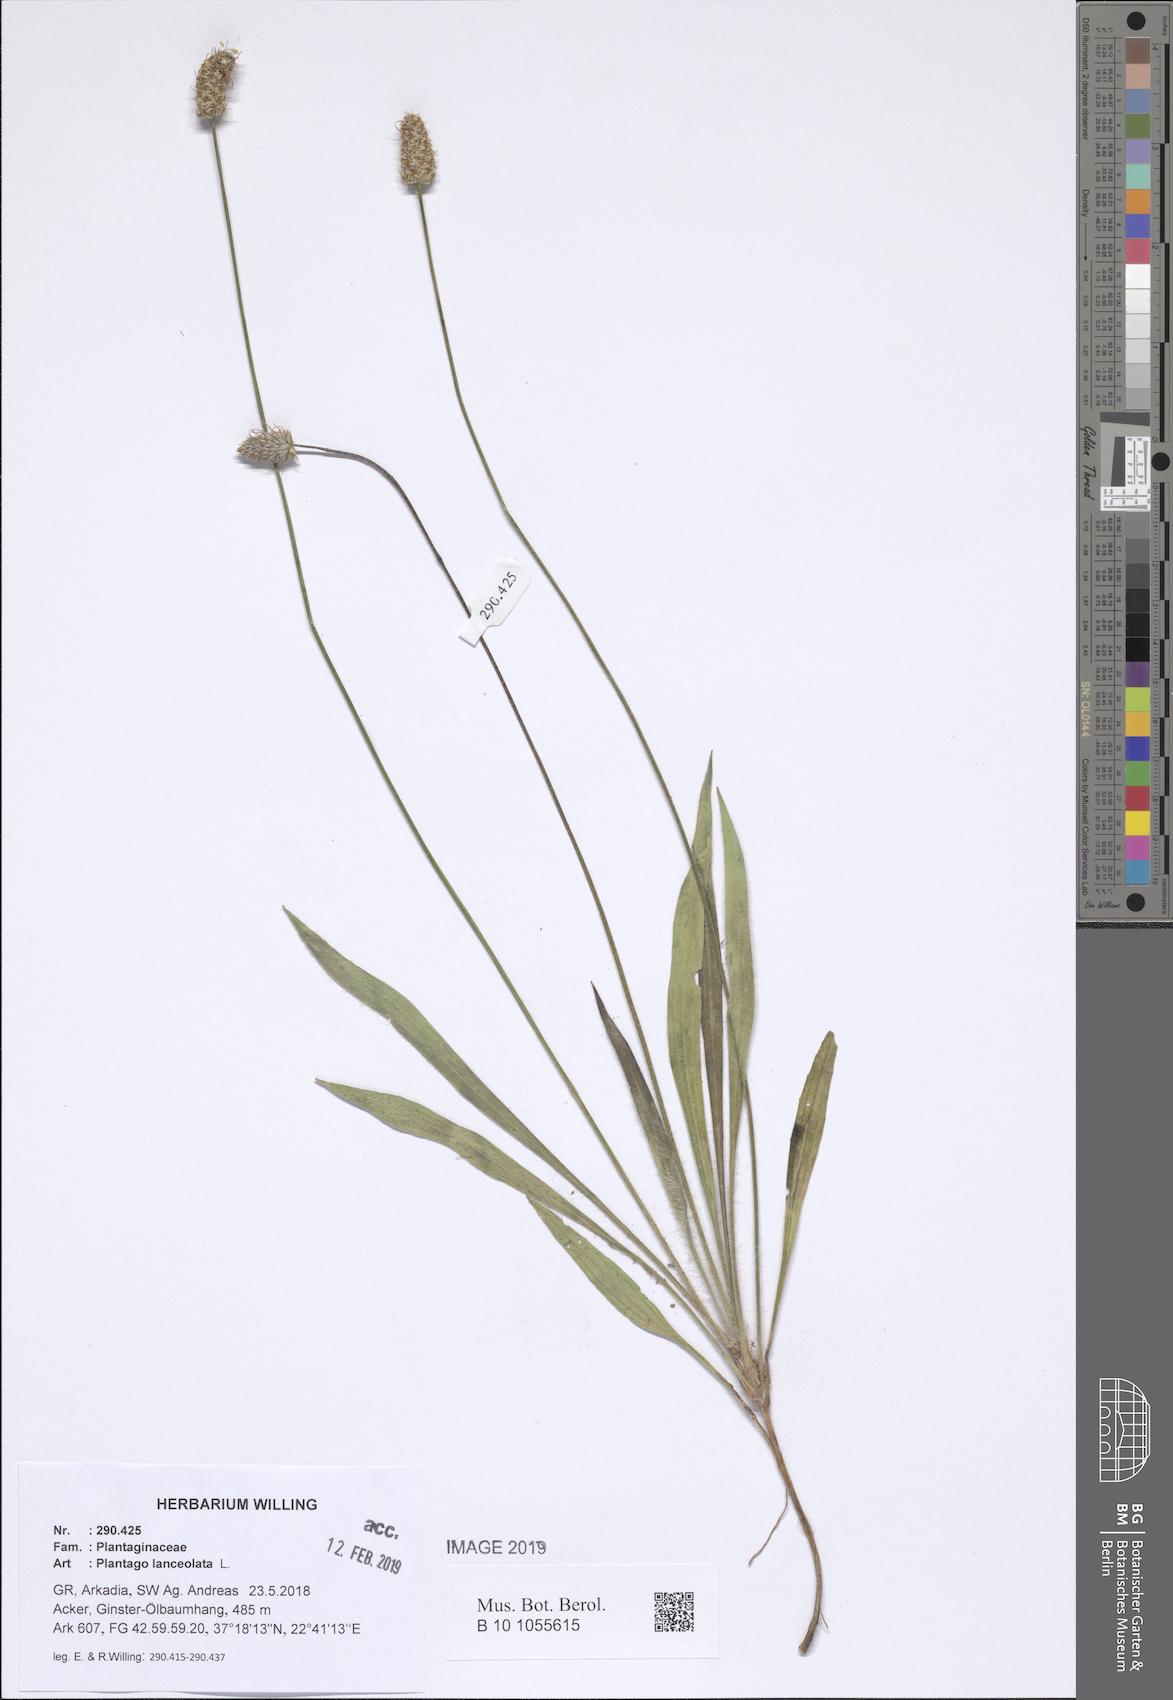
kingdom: Plantae
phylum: Tracheophyta
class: Magnoliopsida
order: Lamiales
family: Plantaginaceae
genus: Plantago
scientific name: Plantago lanceolata
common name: Ribwort plantain
